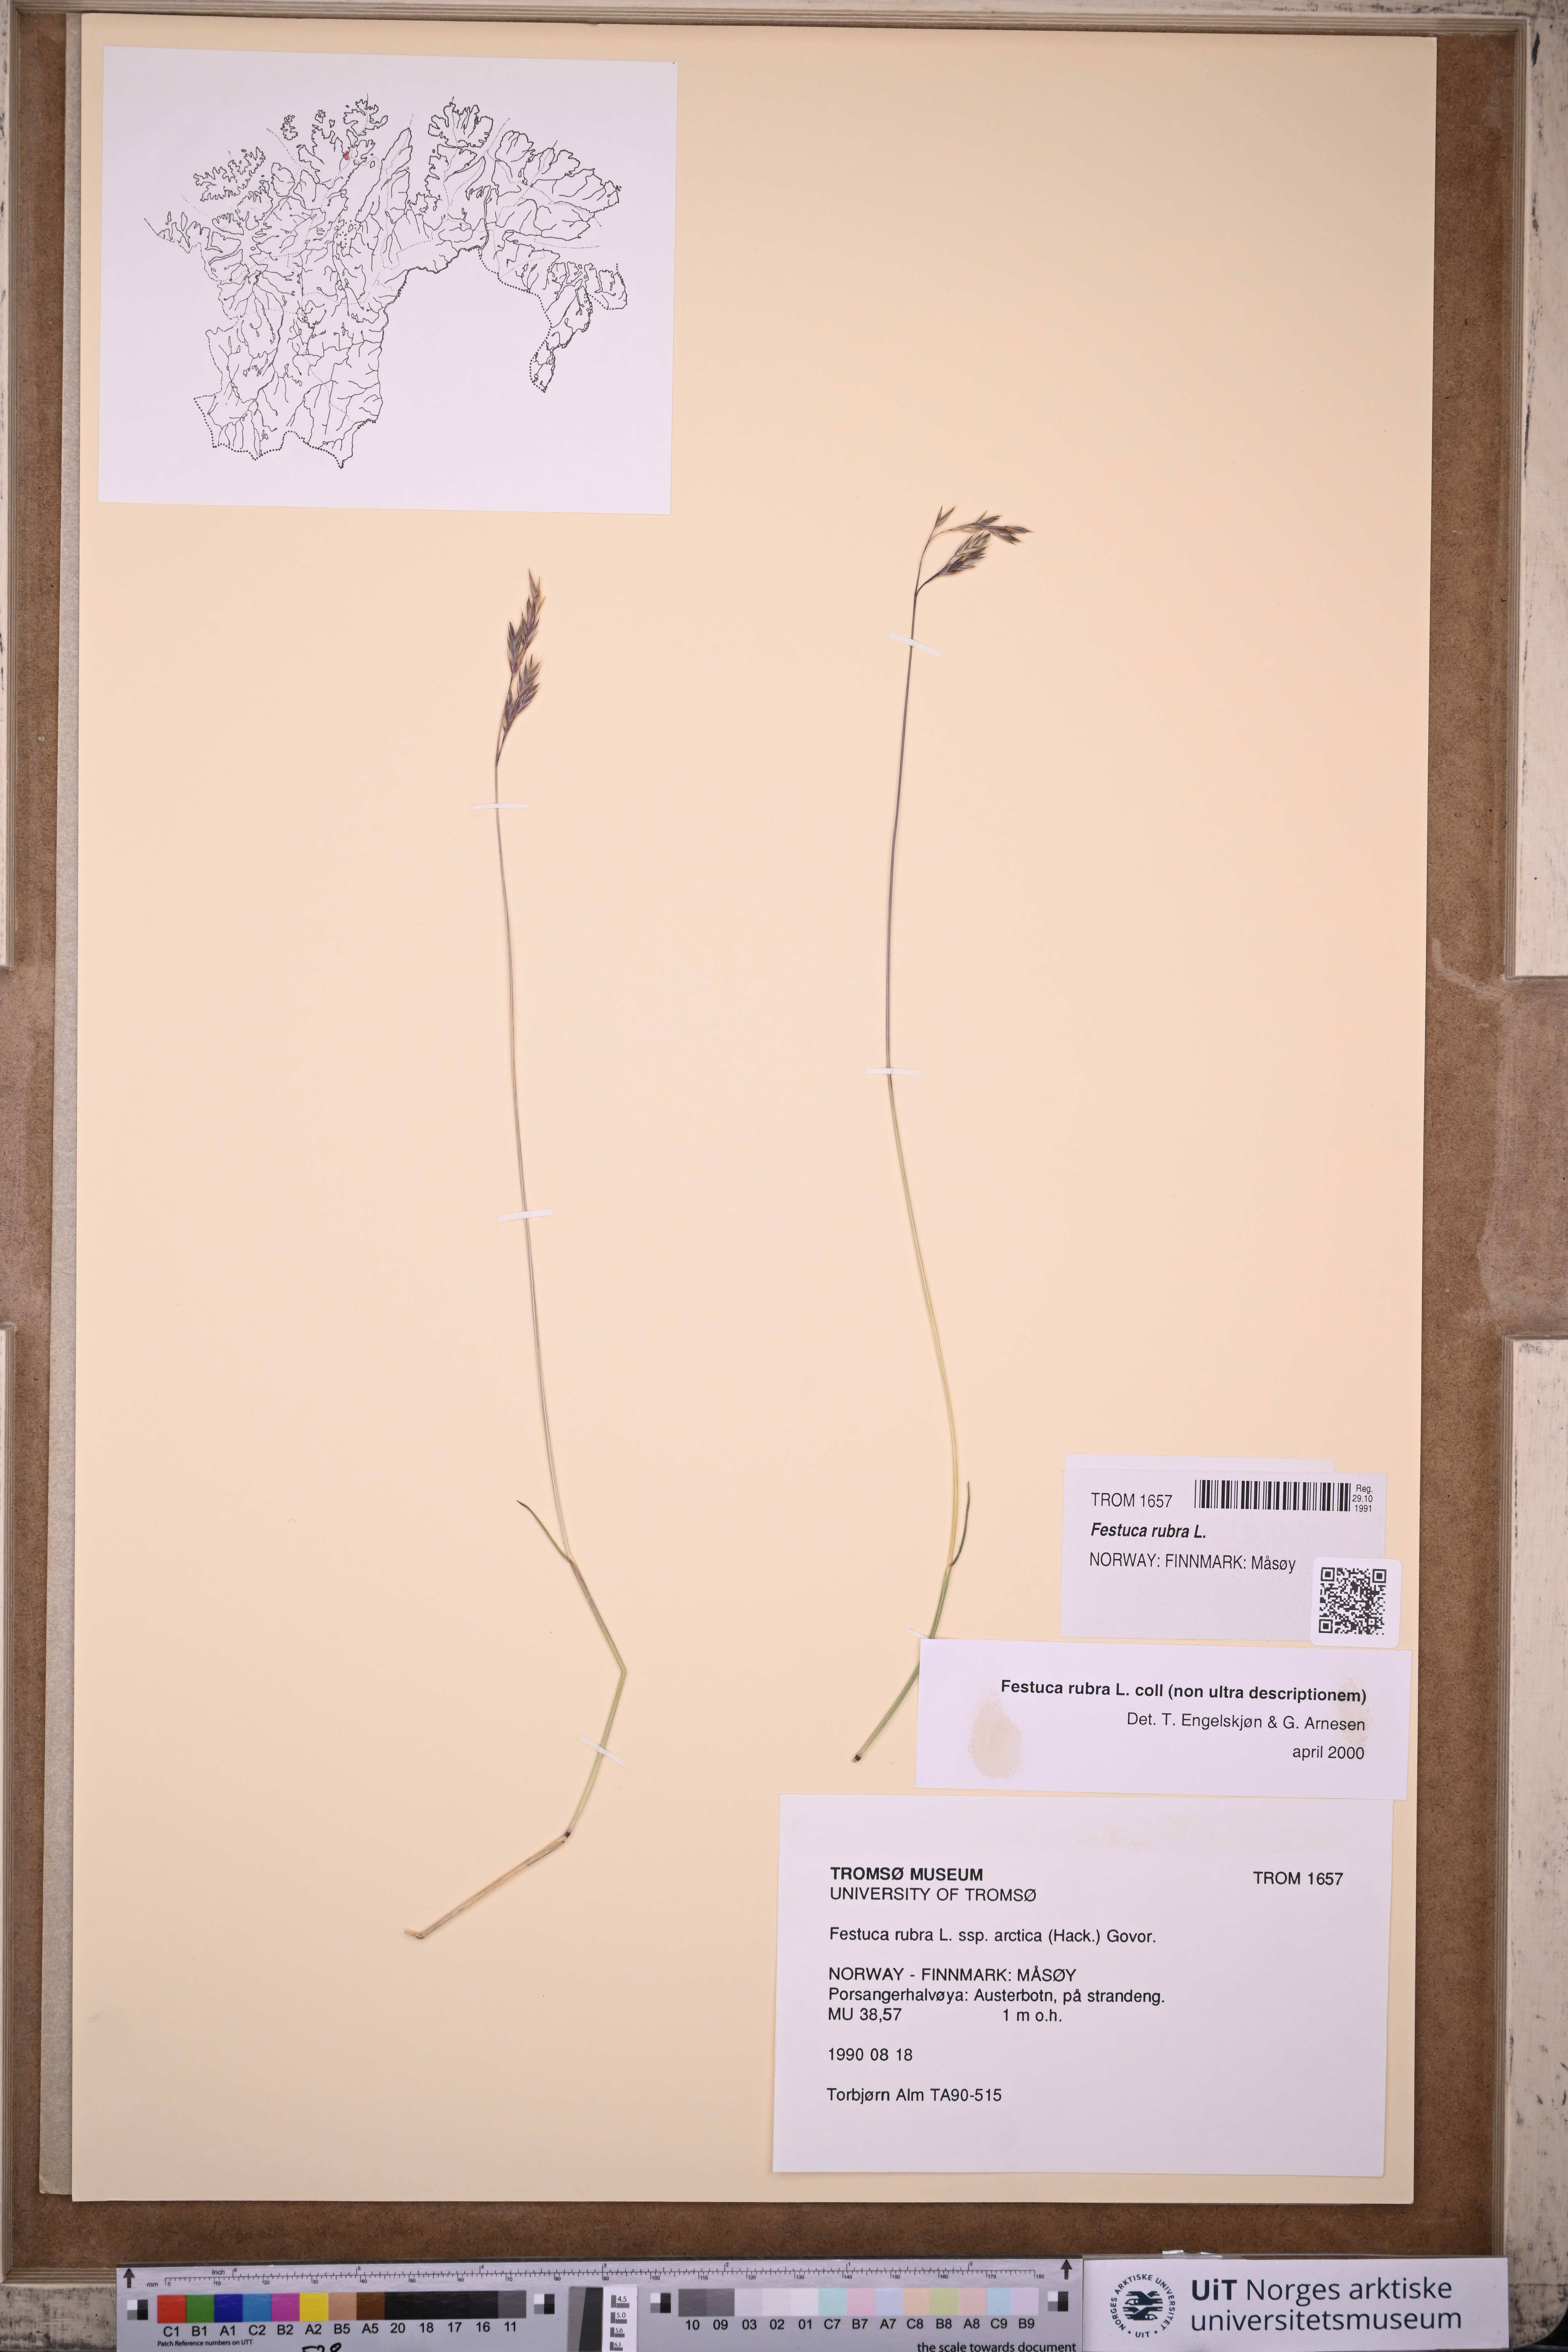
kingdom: Plantae
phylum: Tracheophyta
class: Liliopsida
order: Poales
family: Poaceae
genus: Festuca
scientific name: Festuca rubra
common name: Red fescue
